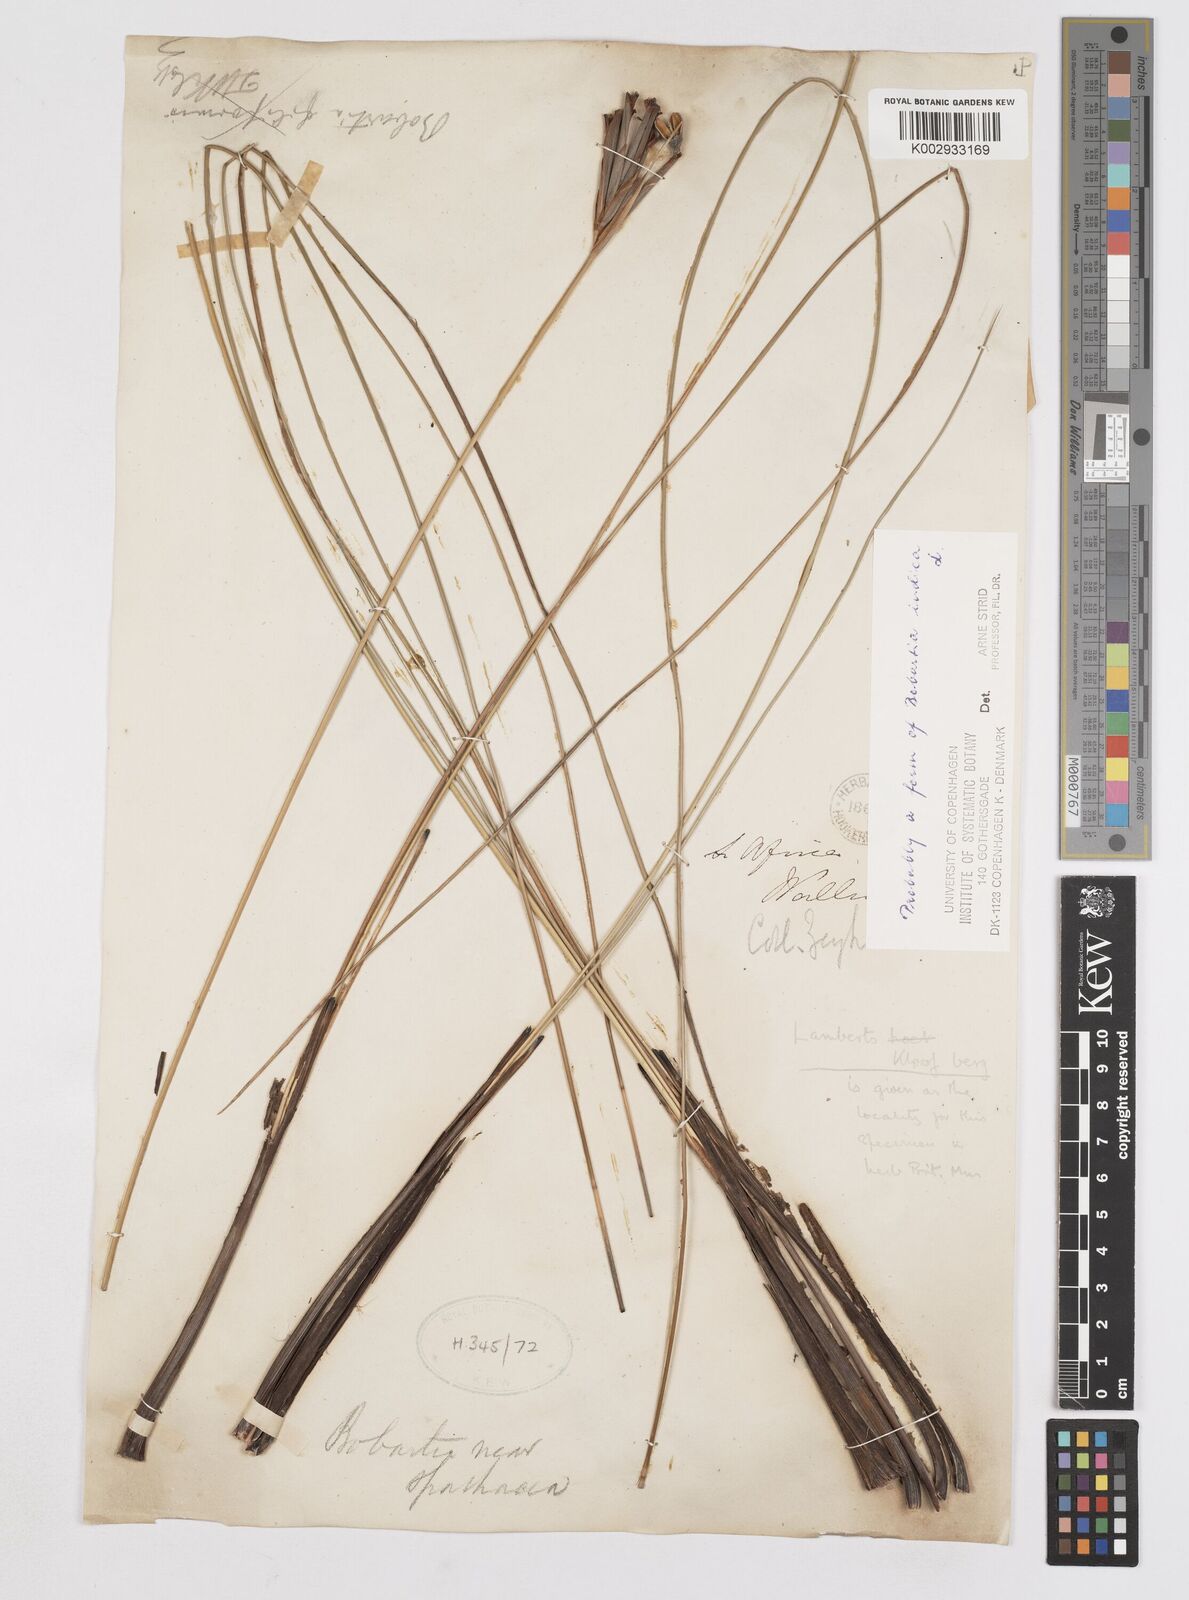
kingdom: Plantae
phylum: Tracheophyta
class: Liliopsida
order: Asparagales
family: Iridaceae
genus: Bobartia
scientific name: Bobartia indica
